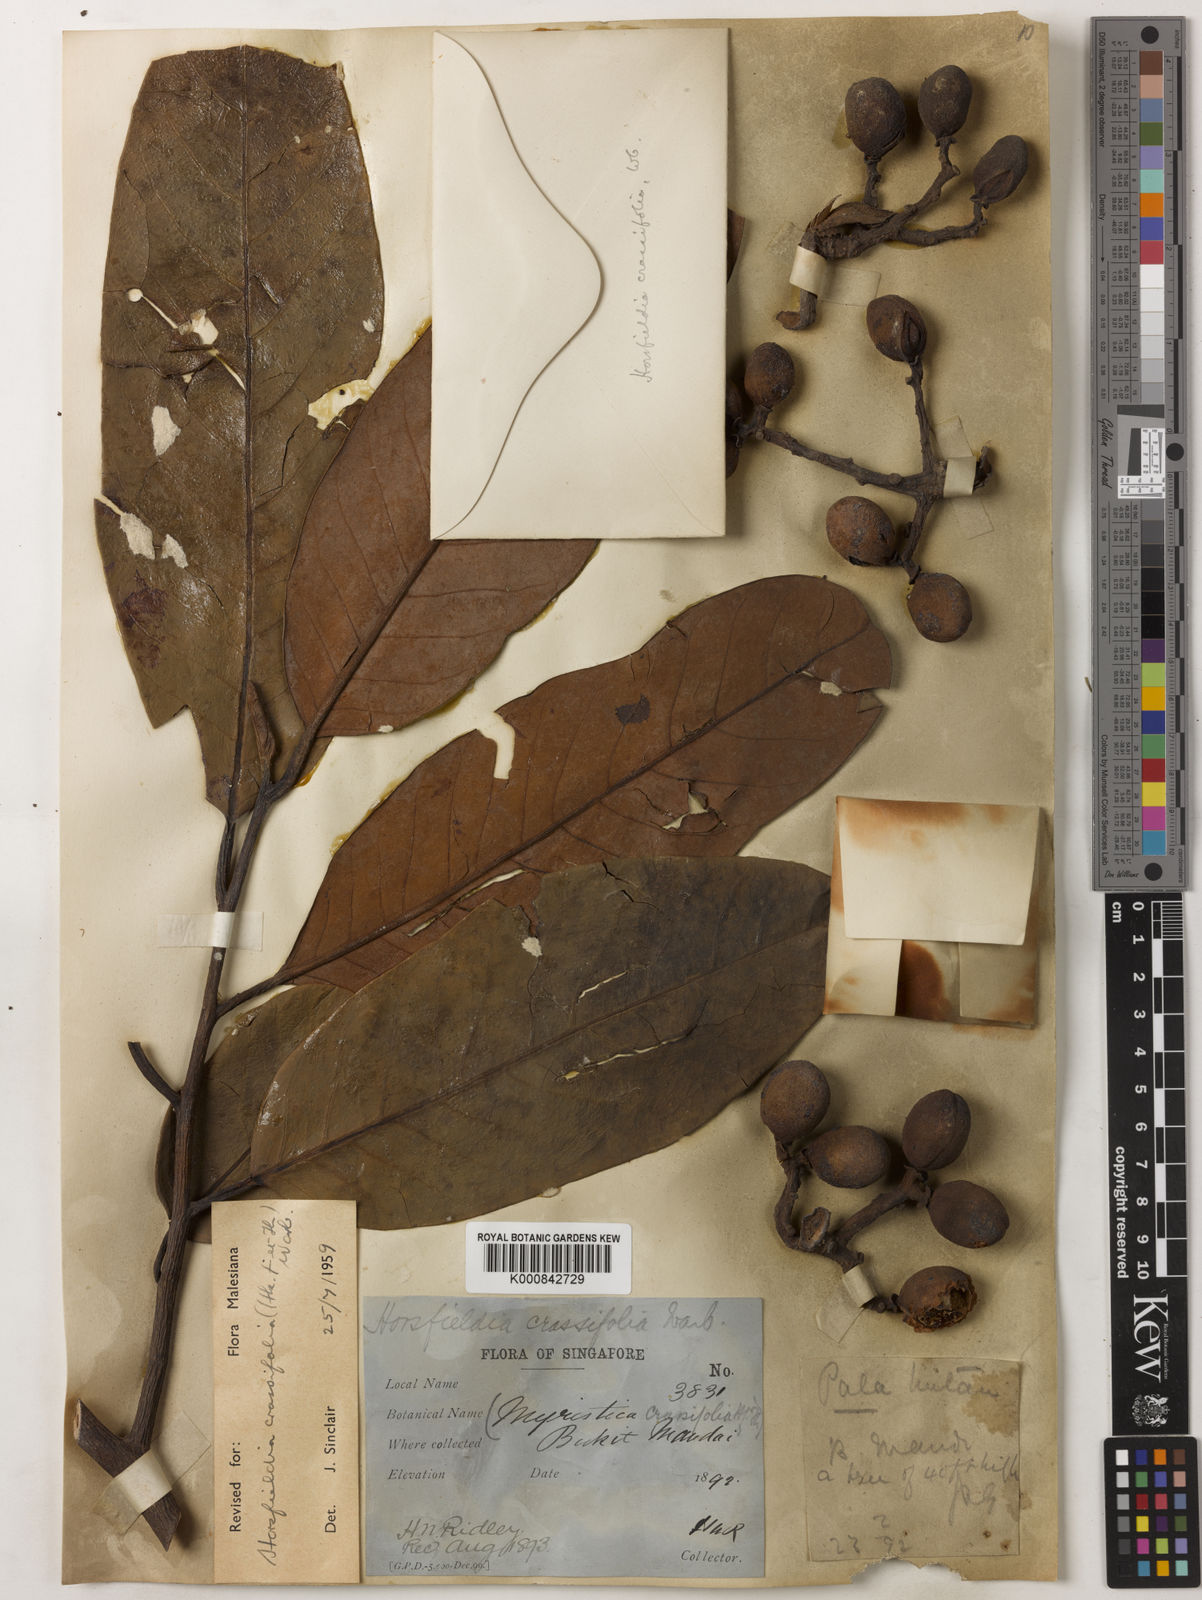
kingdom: Plantae
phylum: Tracheophyta
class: Magnoliopsida
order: Magnoliales
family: Myristicaceae
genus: Horsfieldia
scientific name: Horsfieldia crassifolia
